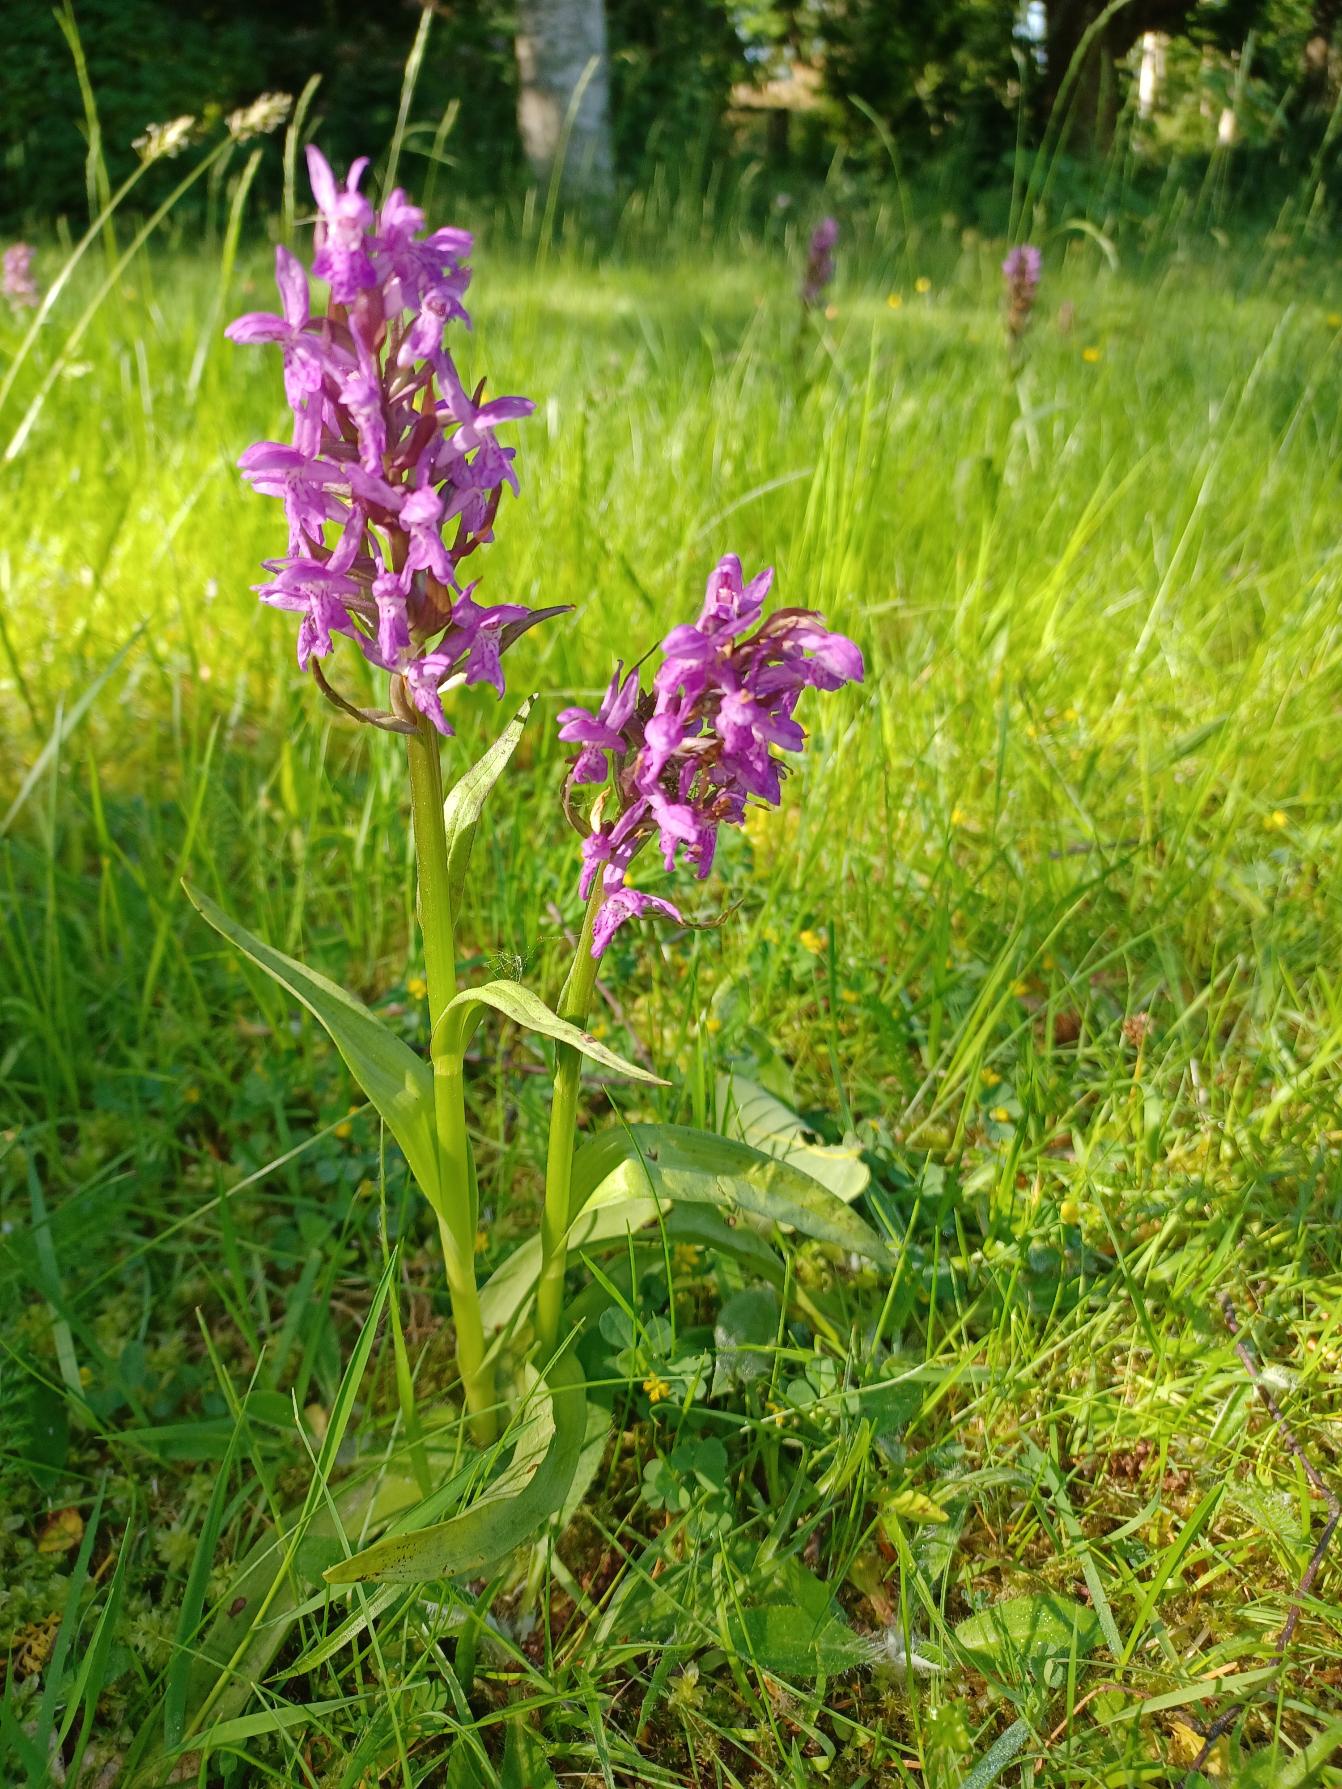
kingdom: Plantae
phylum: Tracheophyta
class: Liliopsida
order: Asparagales
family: Orchidaceae
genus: Dactylorhiza
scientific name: Dactylorhiza majalis
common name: Maj-gøgeurt
